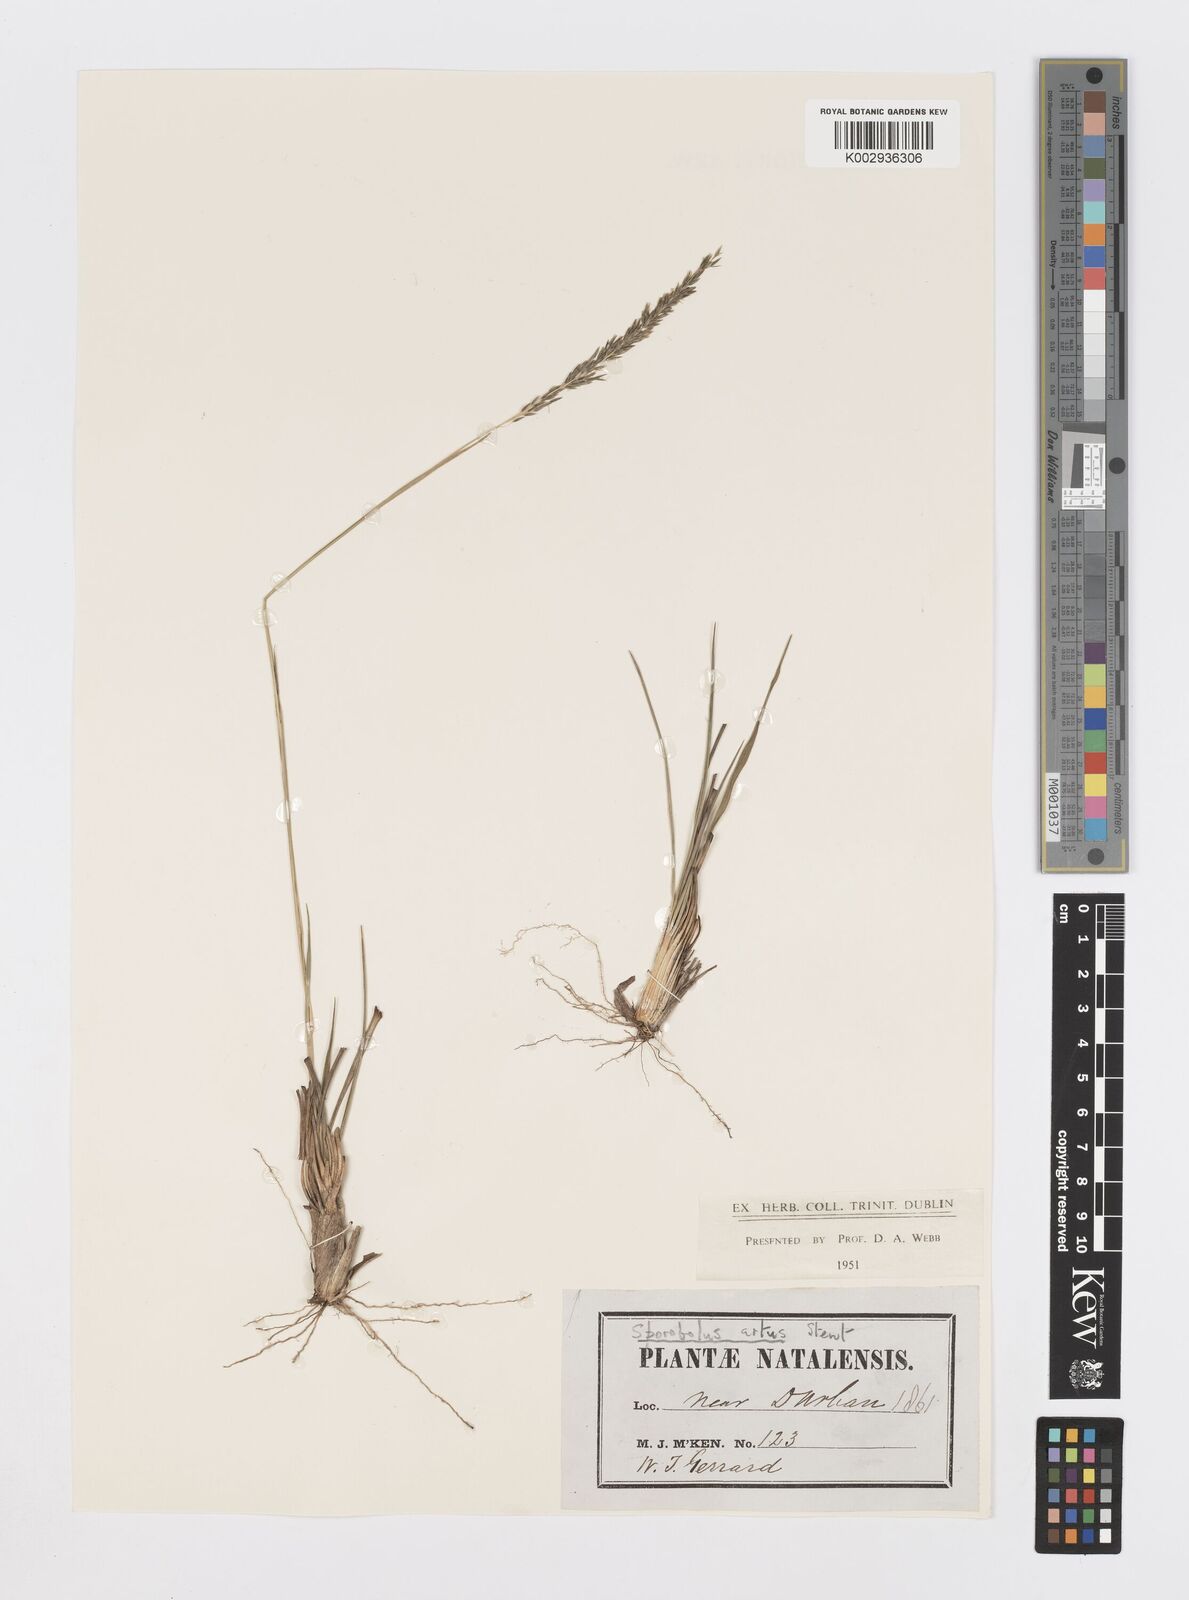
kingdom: Plantae
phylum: Tracheophyta
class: Liliopsida
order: Poales
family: Poaceae
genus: Sporobolus
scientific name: Sporobolus subulatus
